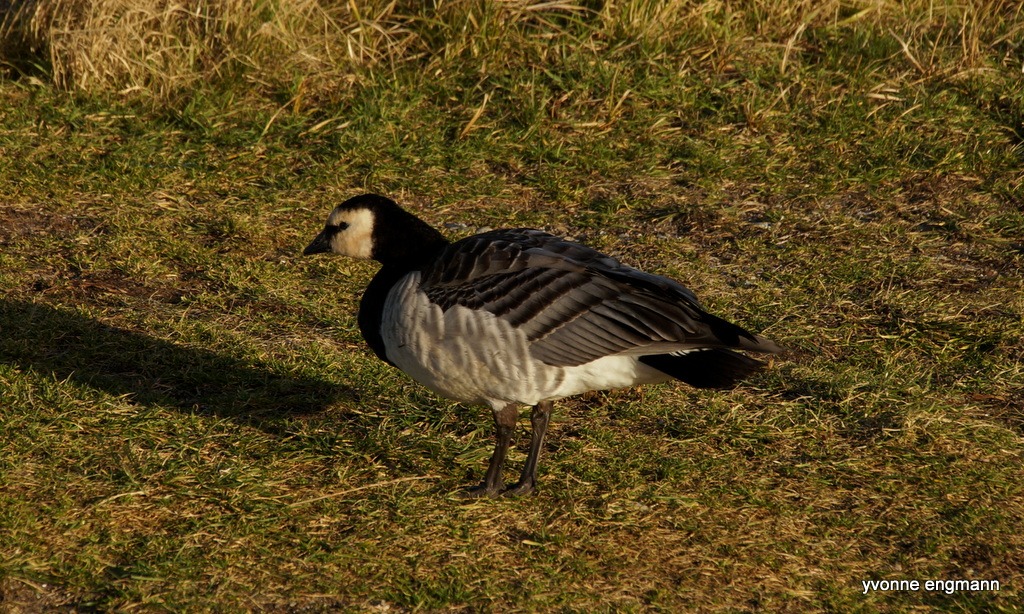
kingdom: Animalia
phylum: Chordata
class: Aves
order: Anseriformes
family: Anatidae
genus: Branta
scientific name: Branta leucopsis
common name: Bramgås
